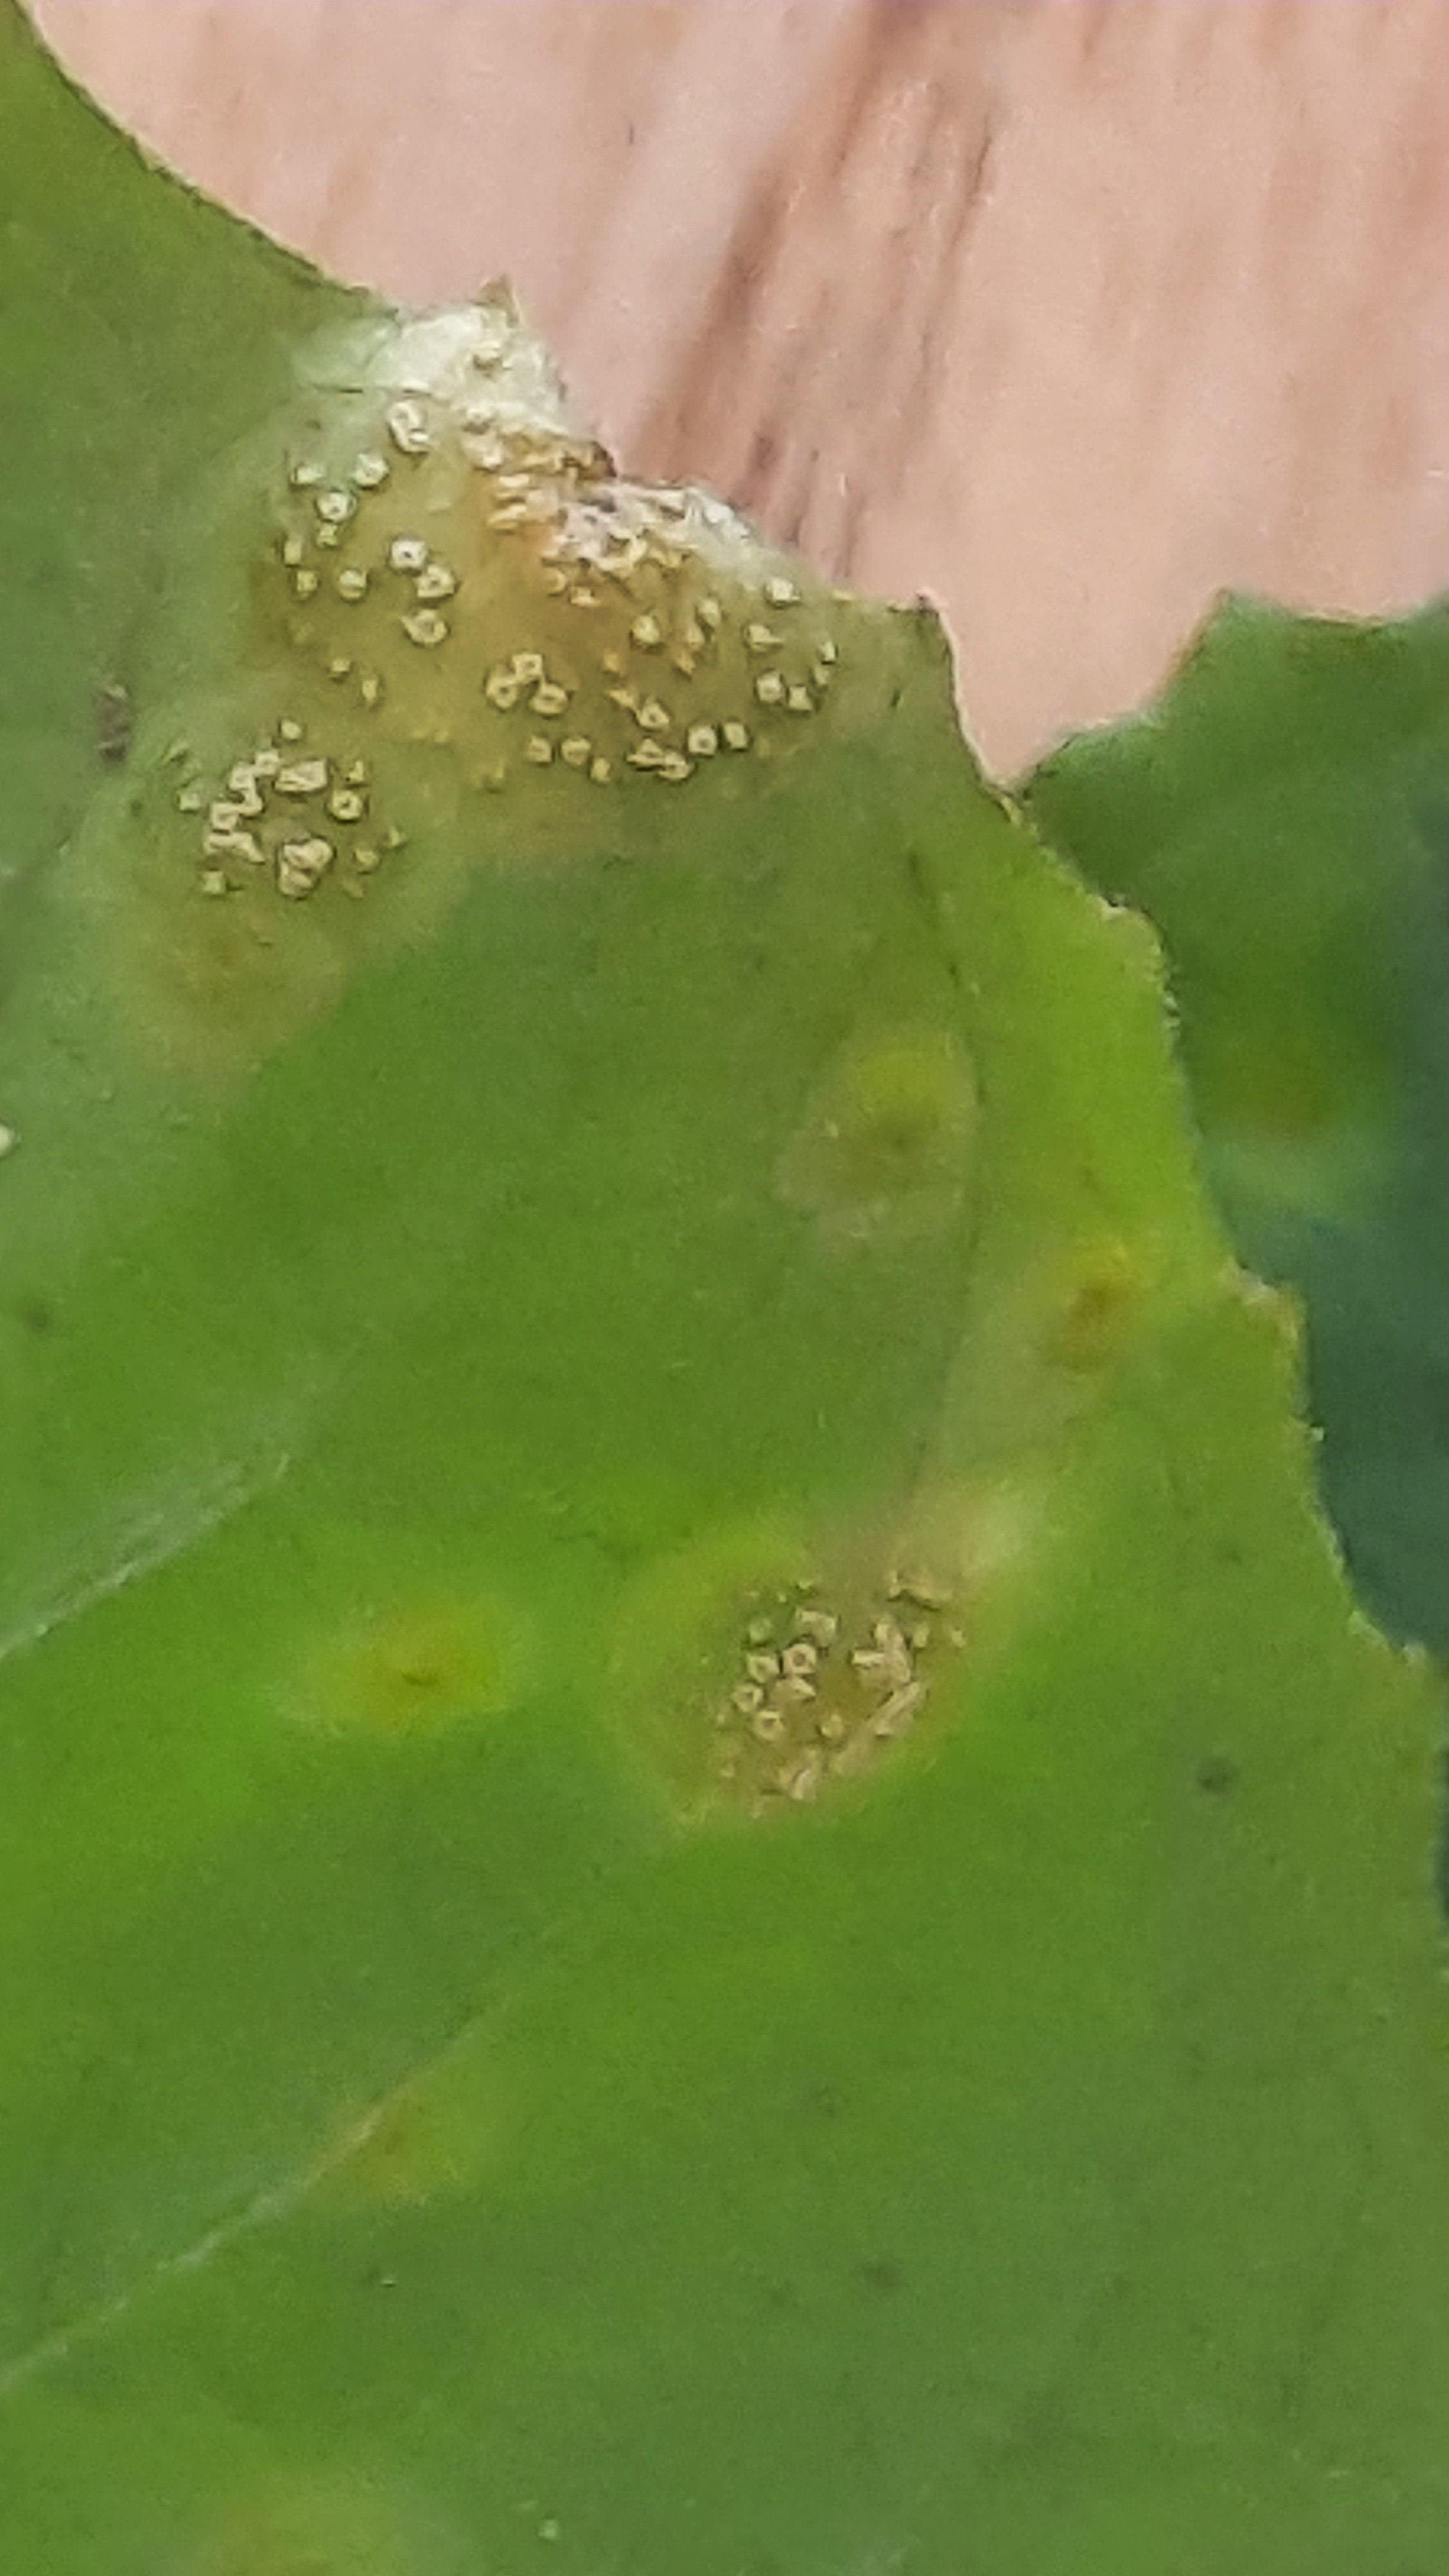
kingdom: Fungi
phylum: Basidiomycota
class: Pucciniomycetes
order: Pucciniales
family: Pucciniaceae
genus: Puccinia
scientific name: Puccinia circaeae-caricis
